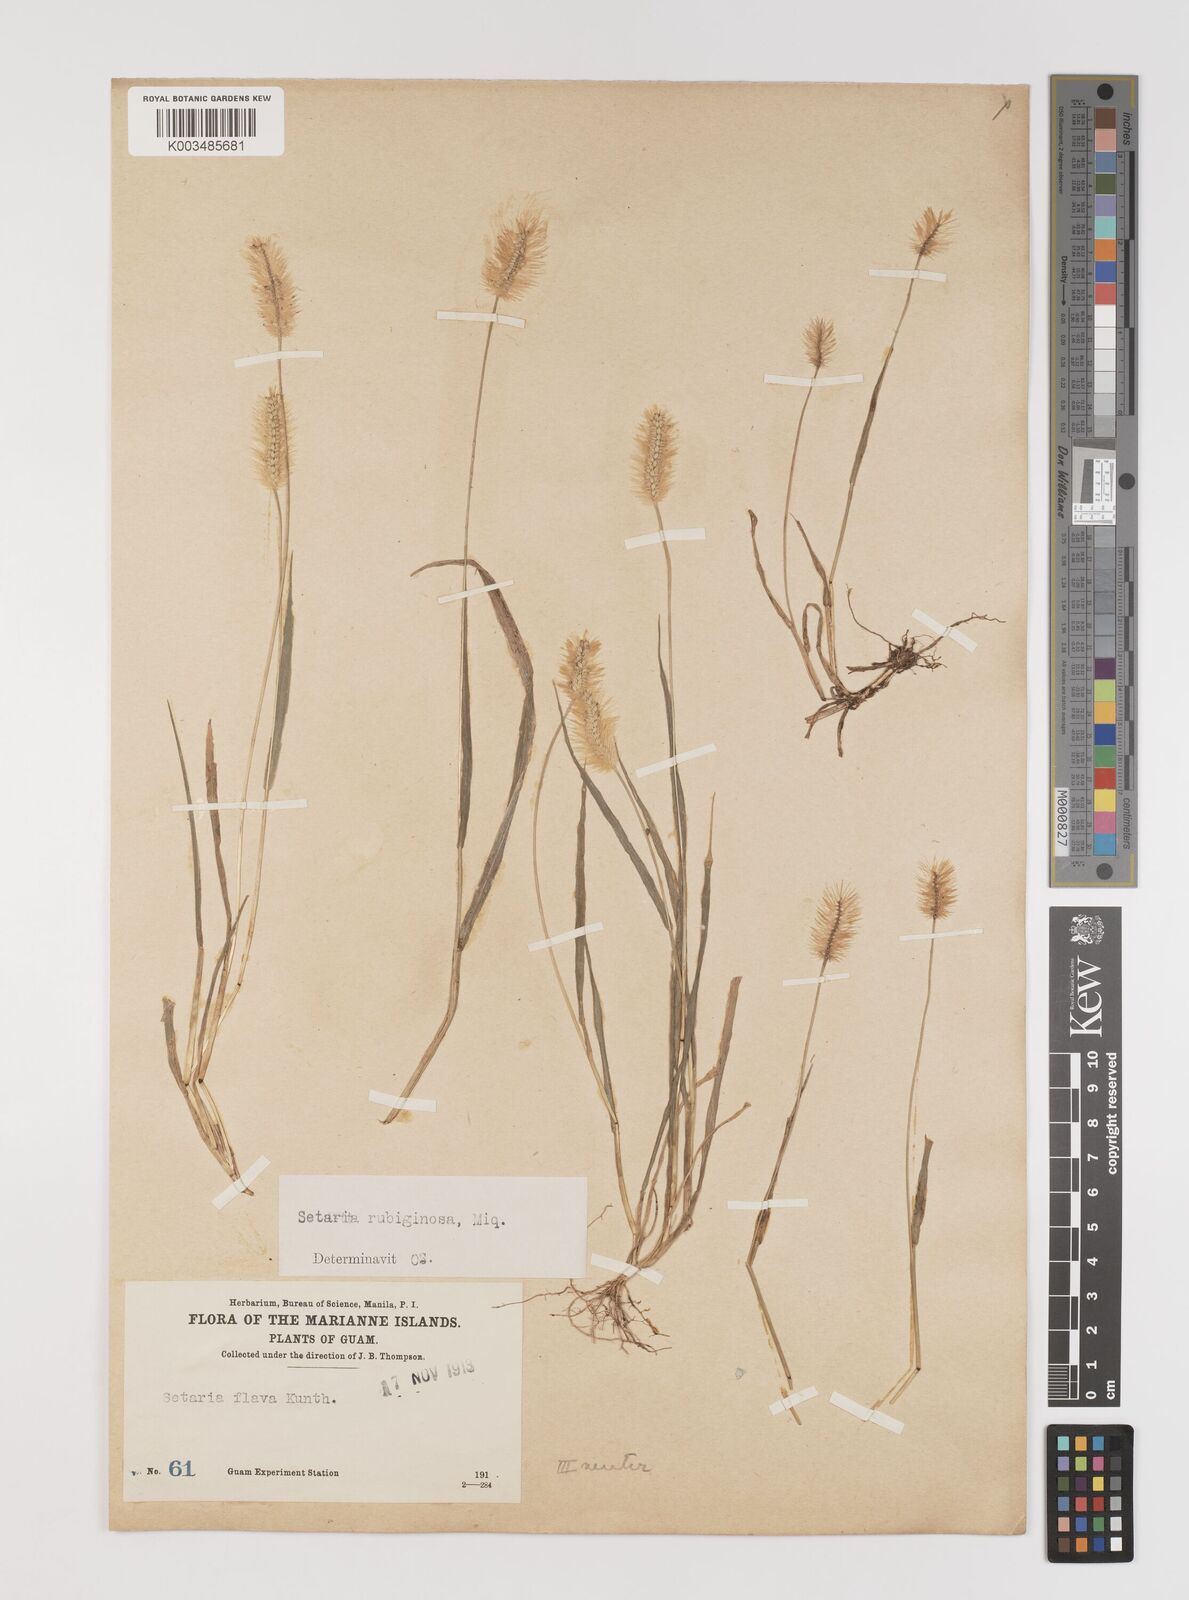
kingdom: Plantae
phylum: Tracheophyta
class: Liliopsida
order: Poales
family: Poaceae
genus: Setaria
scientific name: Setaria pumila
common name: Yellow bristle-grass
